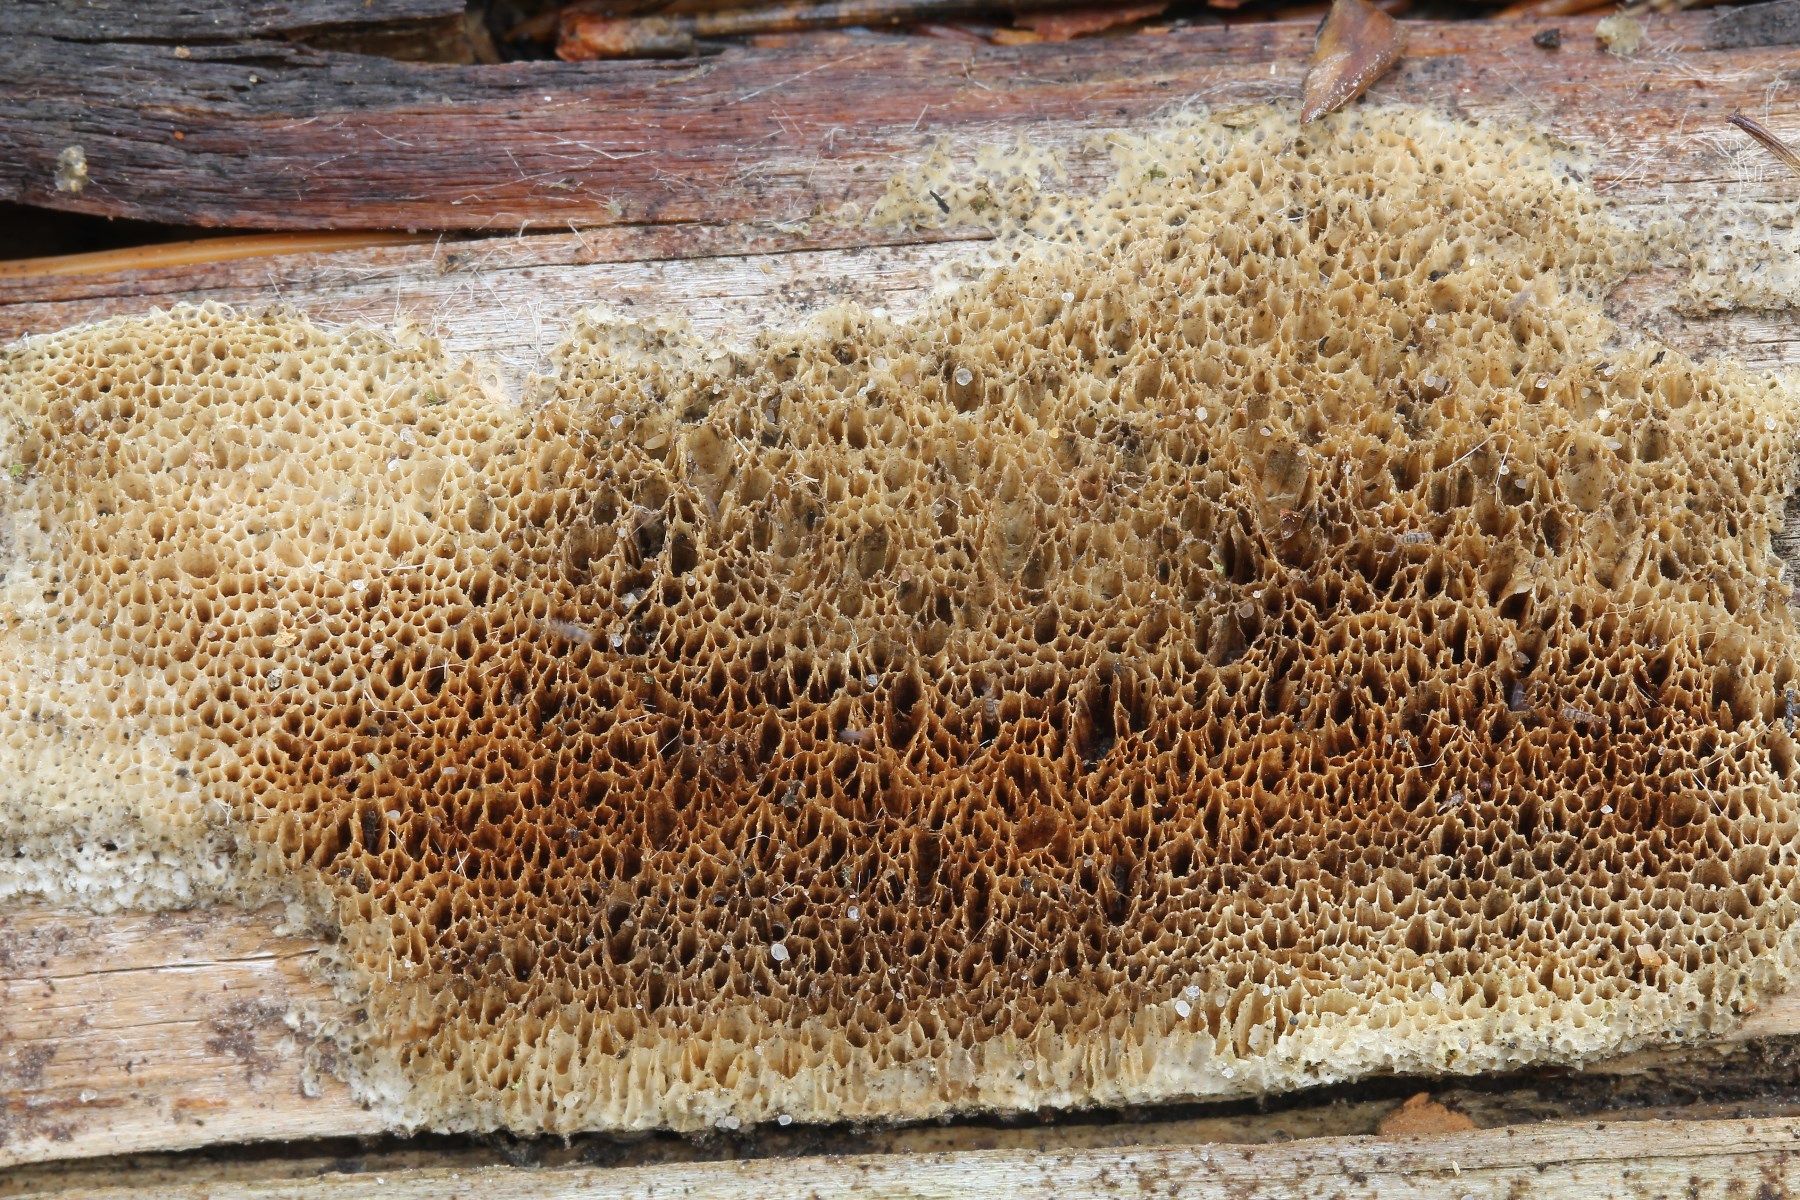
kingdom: Fungi
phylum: Basidiomycota
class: Agaricomycetes
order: Polyporales
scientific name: Polyporales
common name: poresvampordenen
